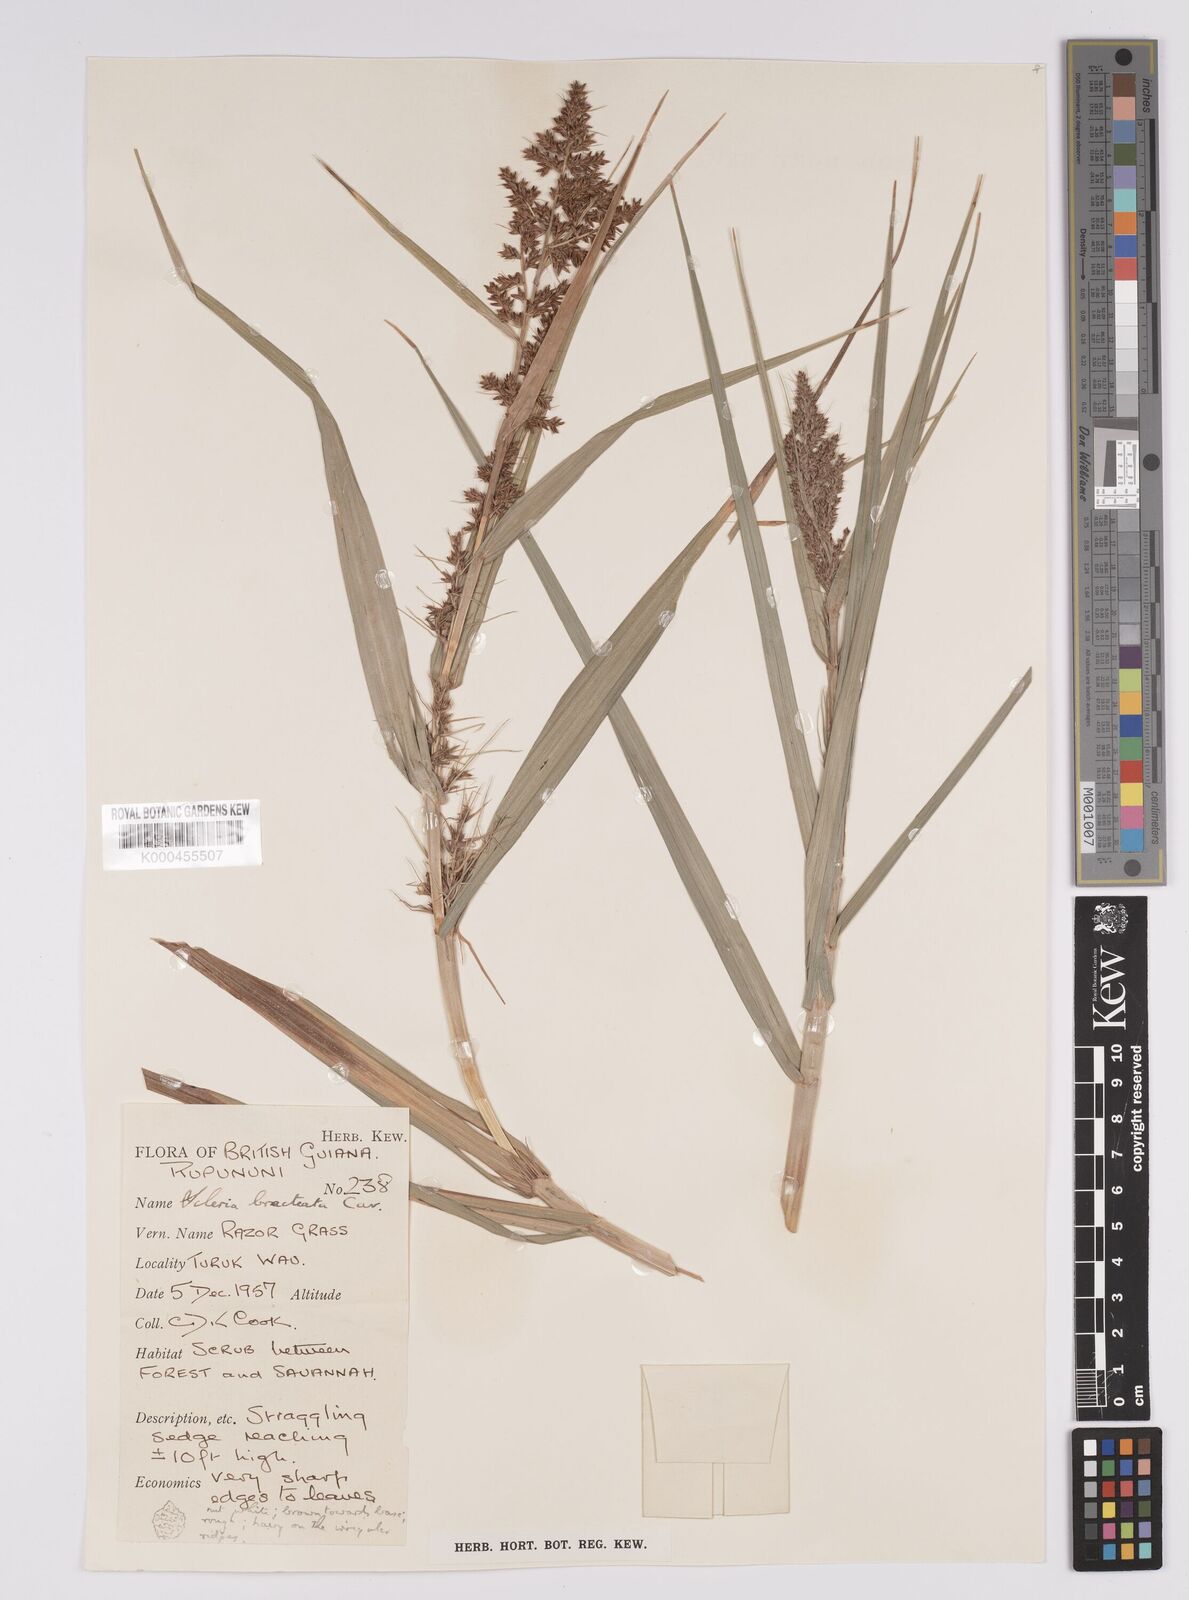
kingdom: Plantae
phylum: Tracheophyta
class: Liliopsida
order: Poales
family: Cyperaceae
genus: Scleria
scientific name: Scleria bracteata
